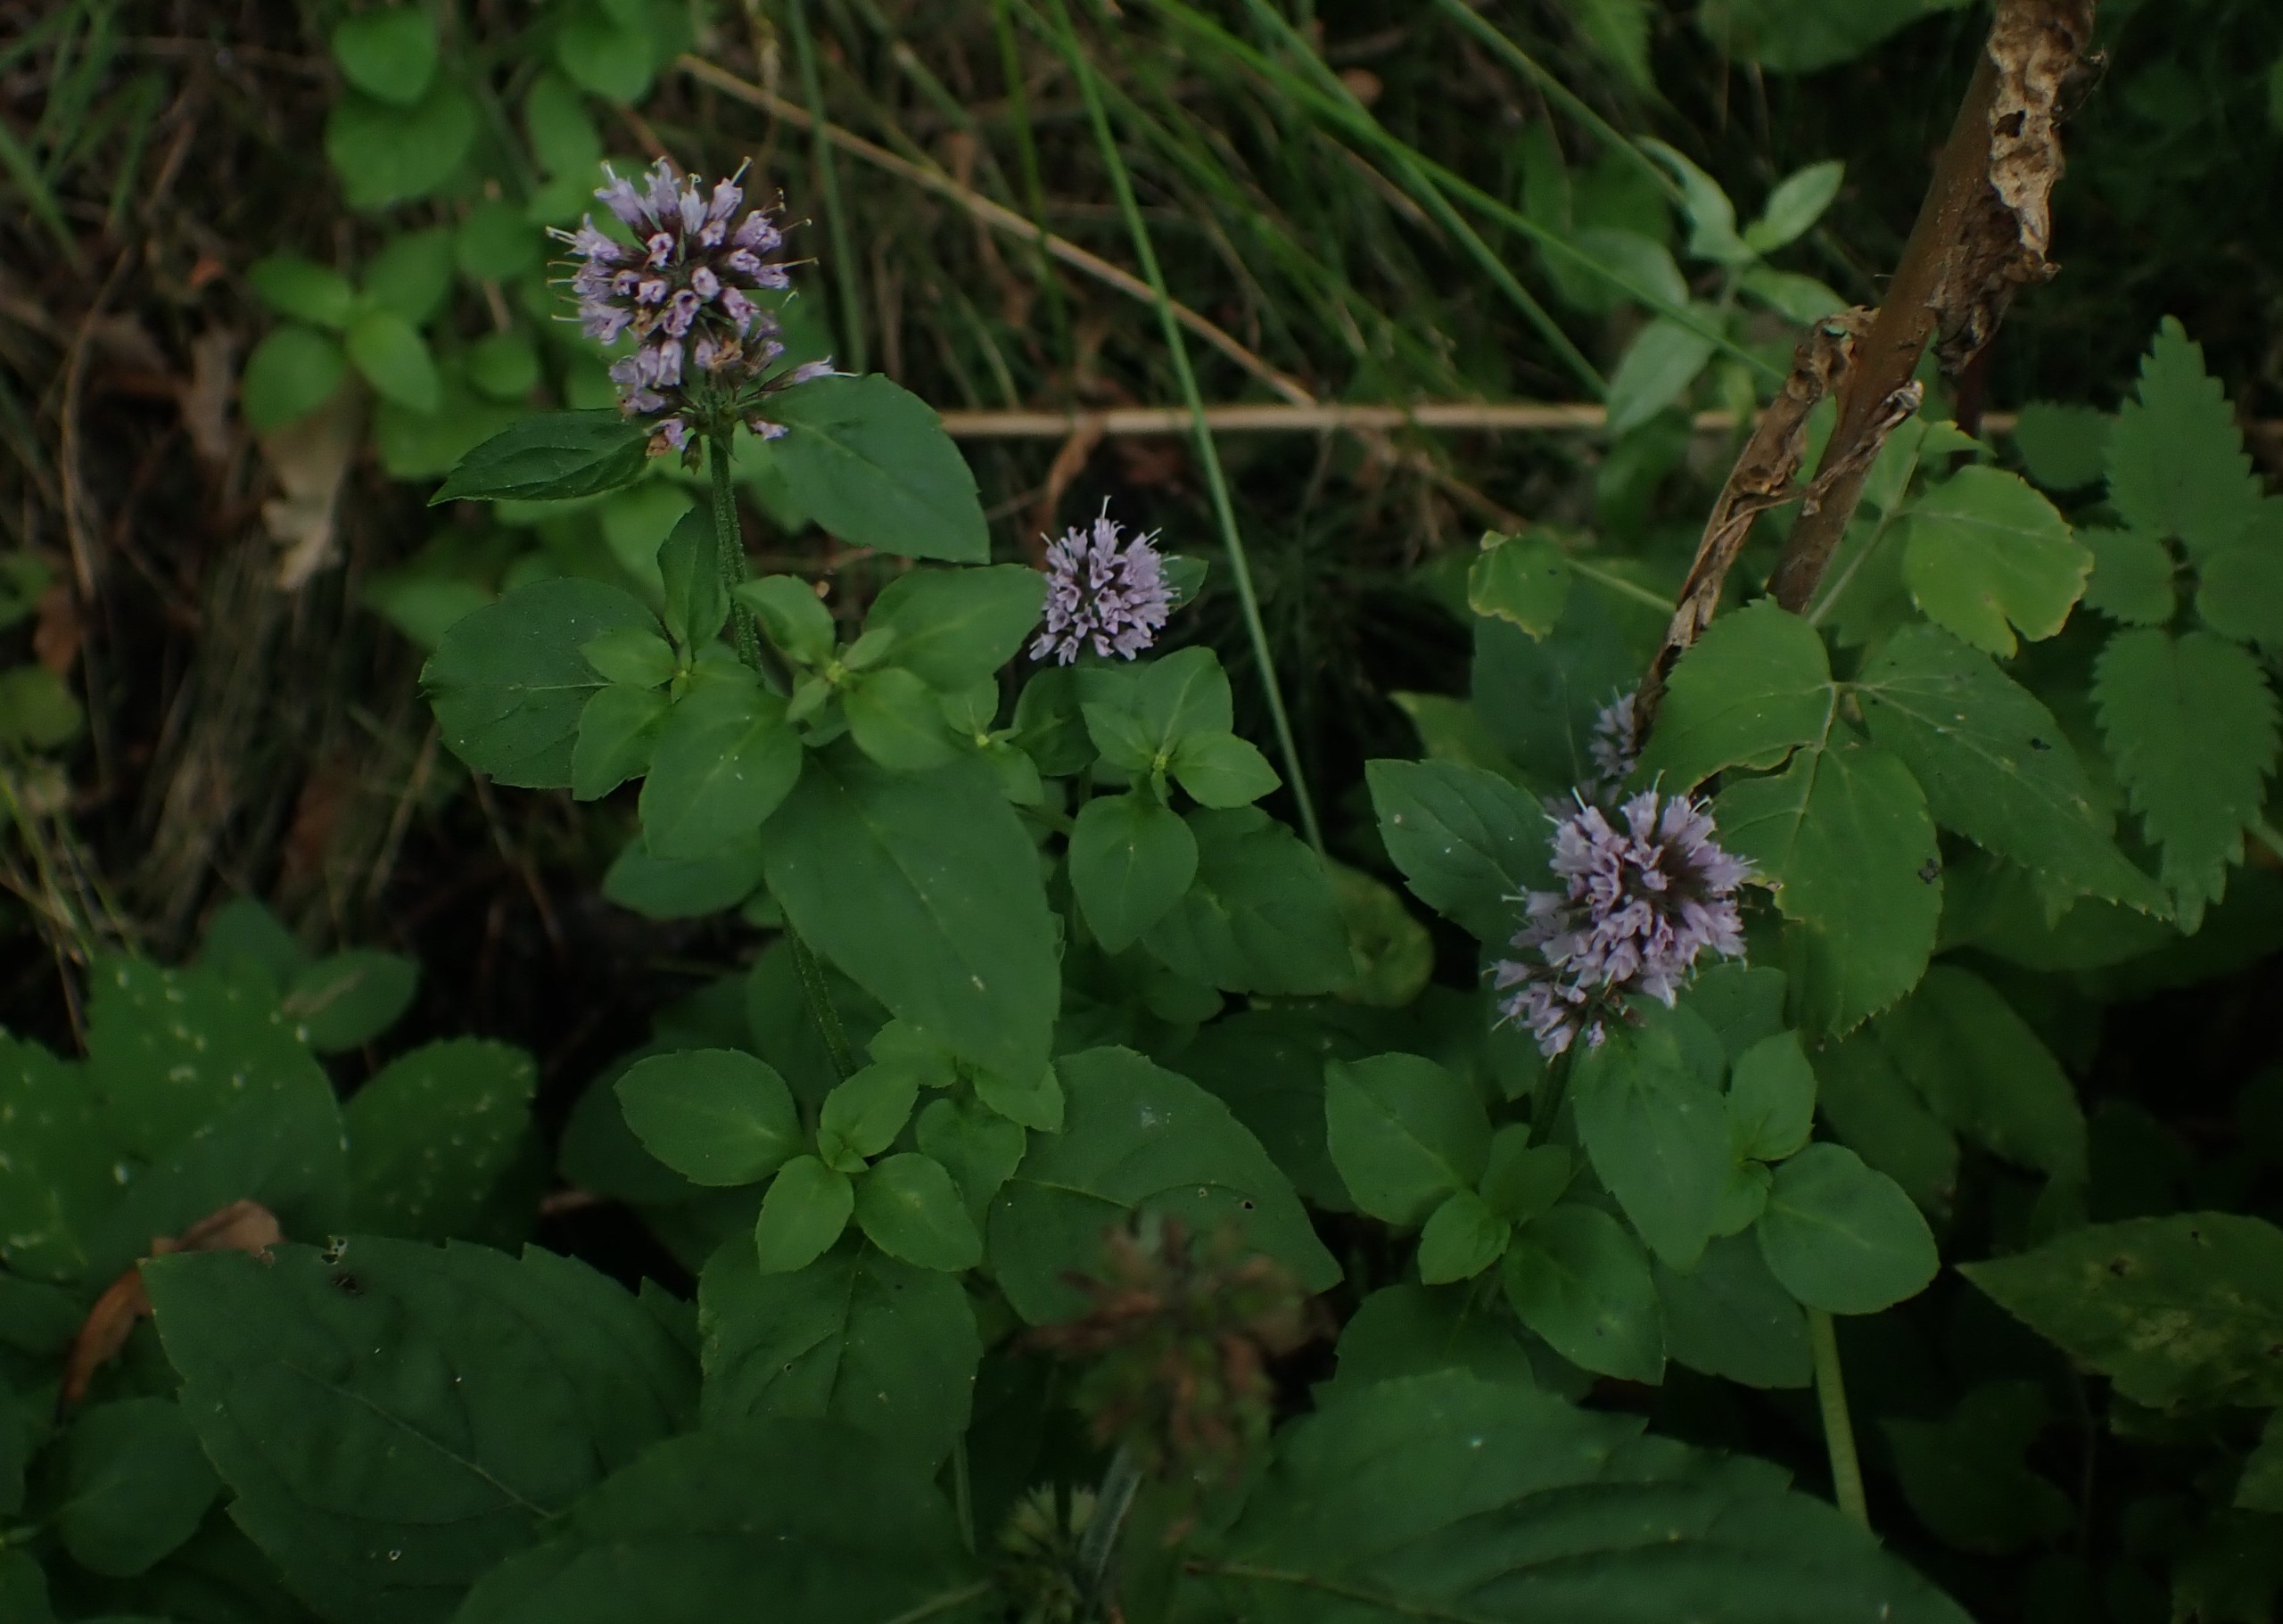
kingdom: Plantae
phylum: Tracheophyta
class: Magnoliopsida
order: Lamiales
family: Lamiaceae
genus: Mentha
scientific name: Mentha aquatica
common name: Vand-mynte
